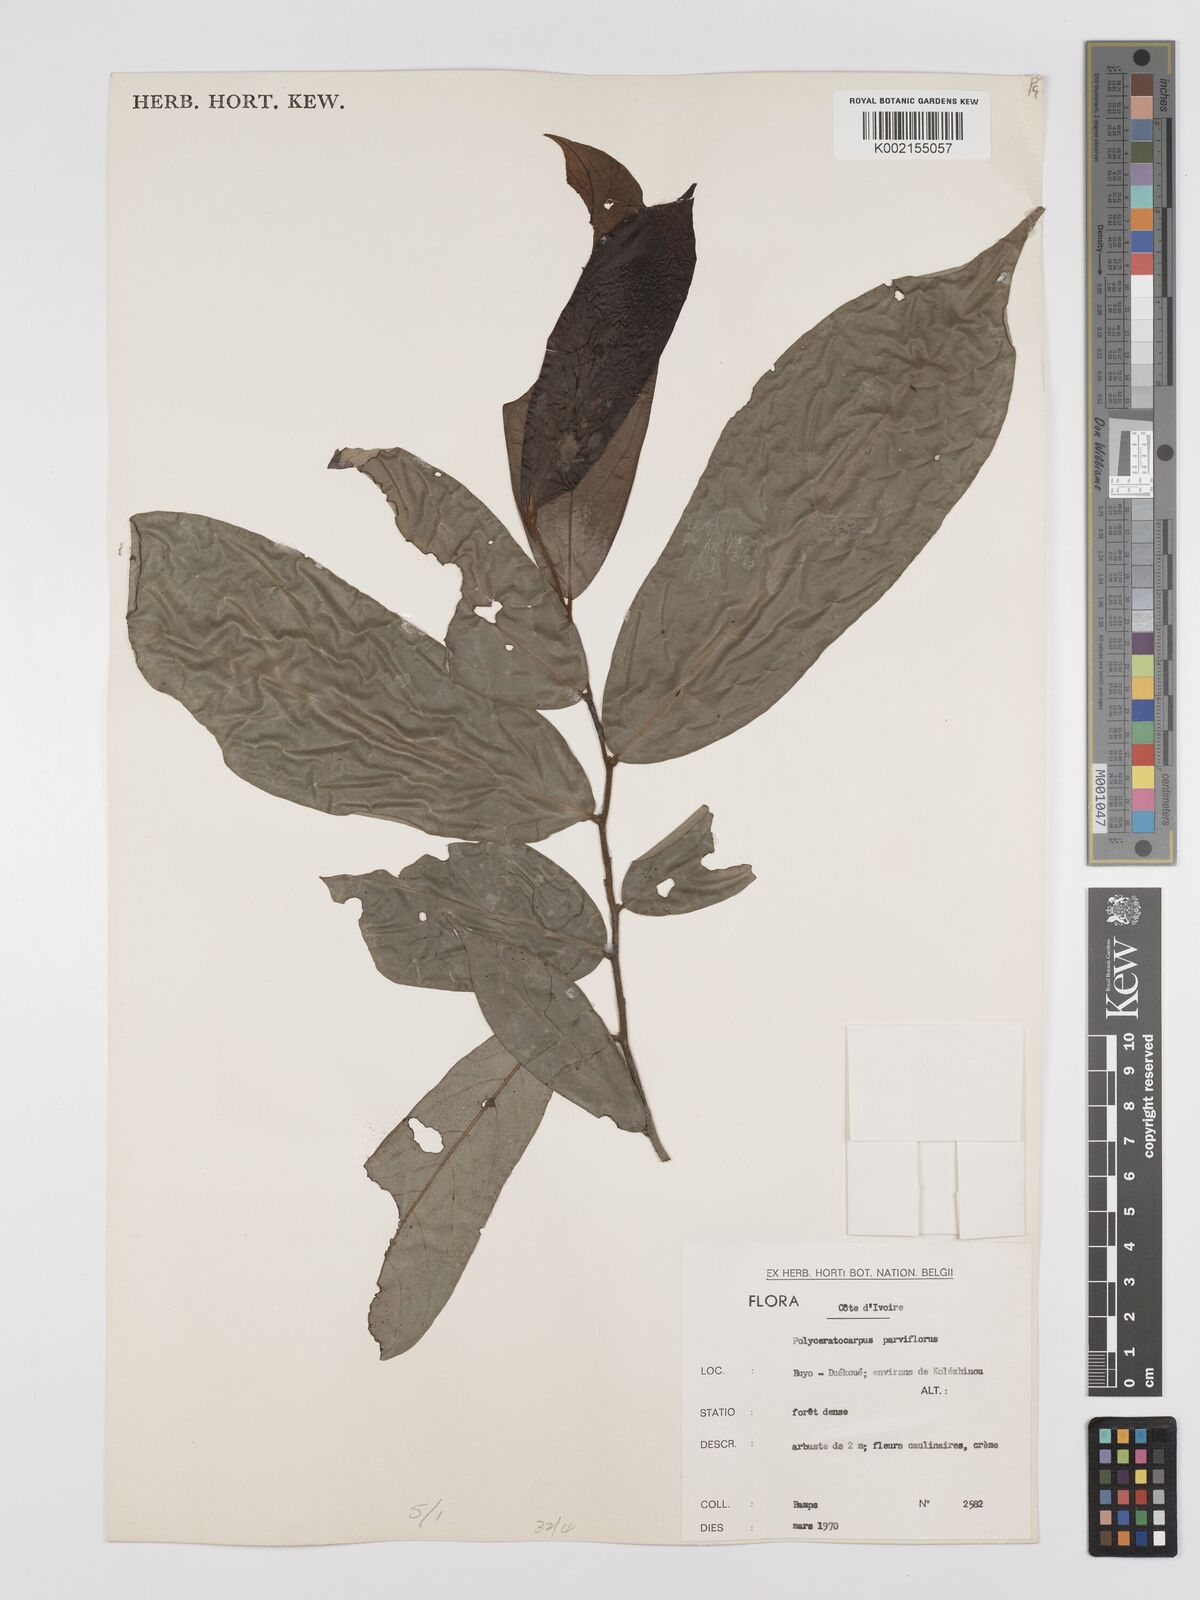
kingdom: Plantae
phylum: Tracheophyta
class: Magnoliopsida
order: Magnoliales
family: Annonaceae
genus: Polyceratocarpus
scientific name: Polyceratocarpus parviflorus
